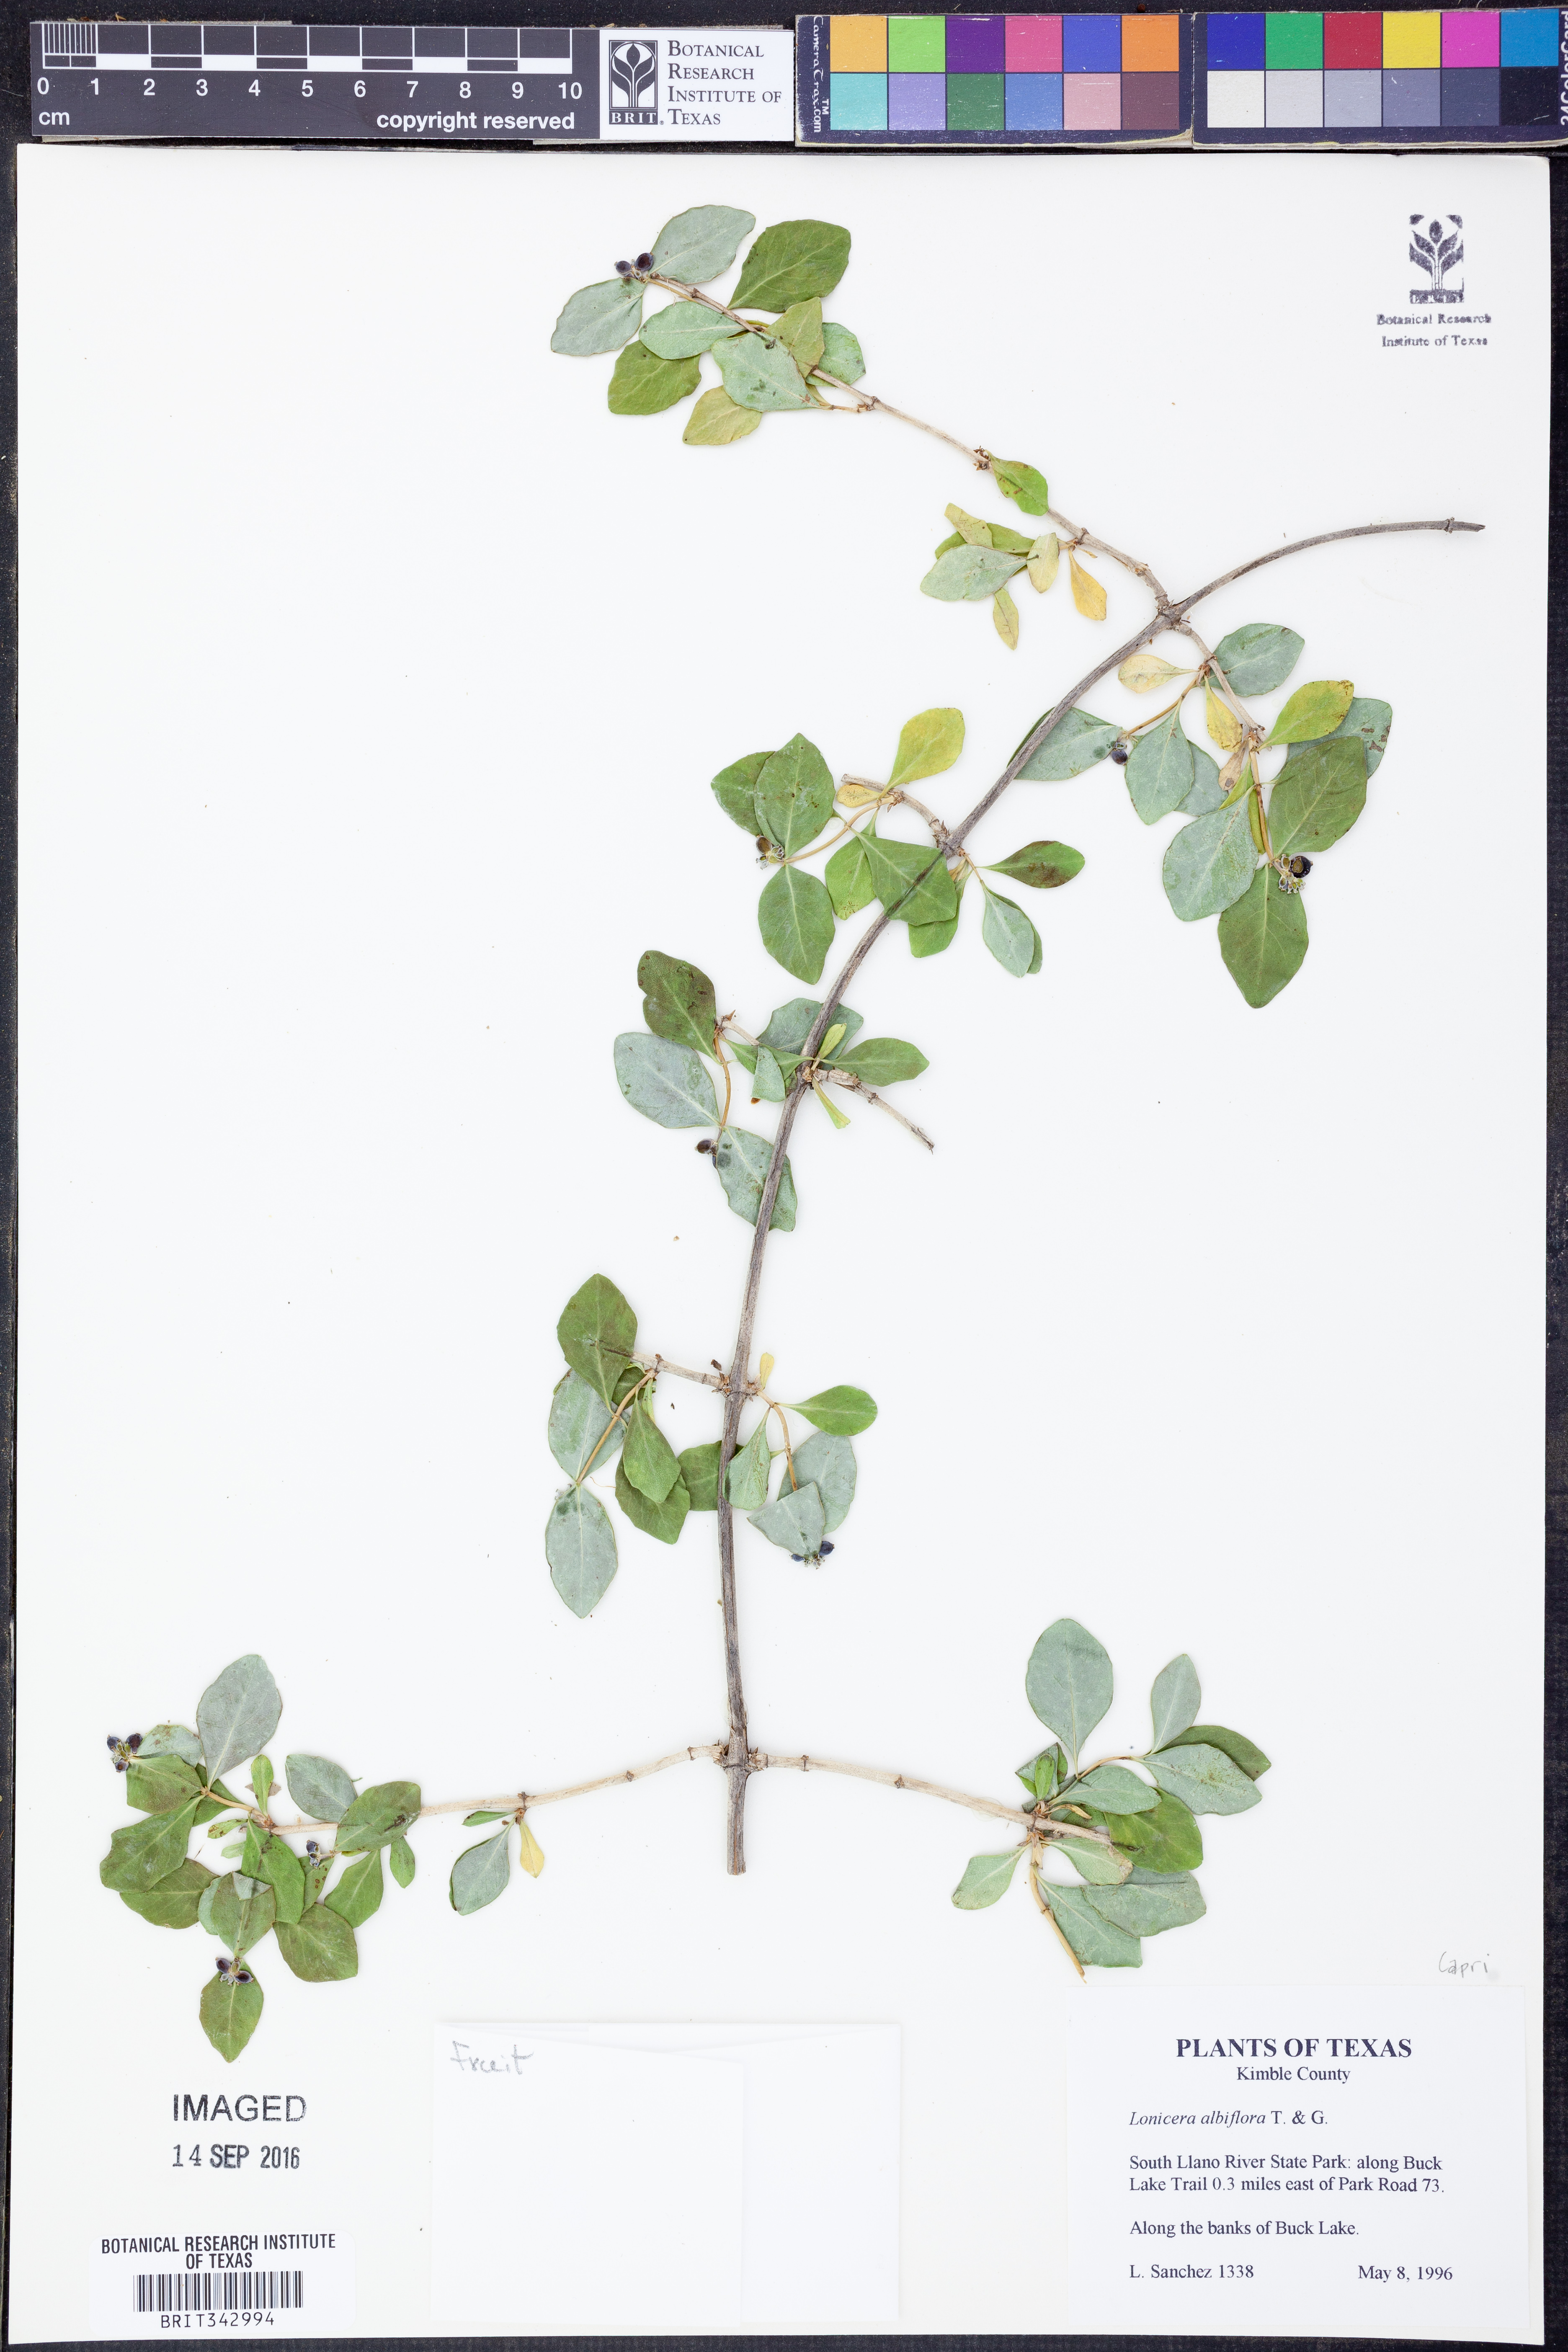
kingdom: Plantae
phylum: Tracheophyta
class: Magnoliopsida
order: Dipsacales
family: Caprifoliaceae
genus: Lonicera
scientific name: Lonicera albiflora
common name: White honeysuckle
